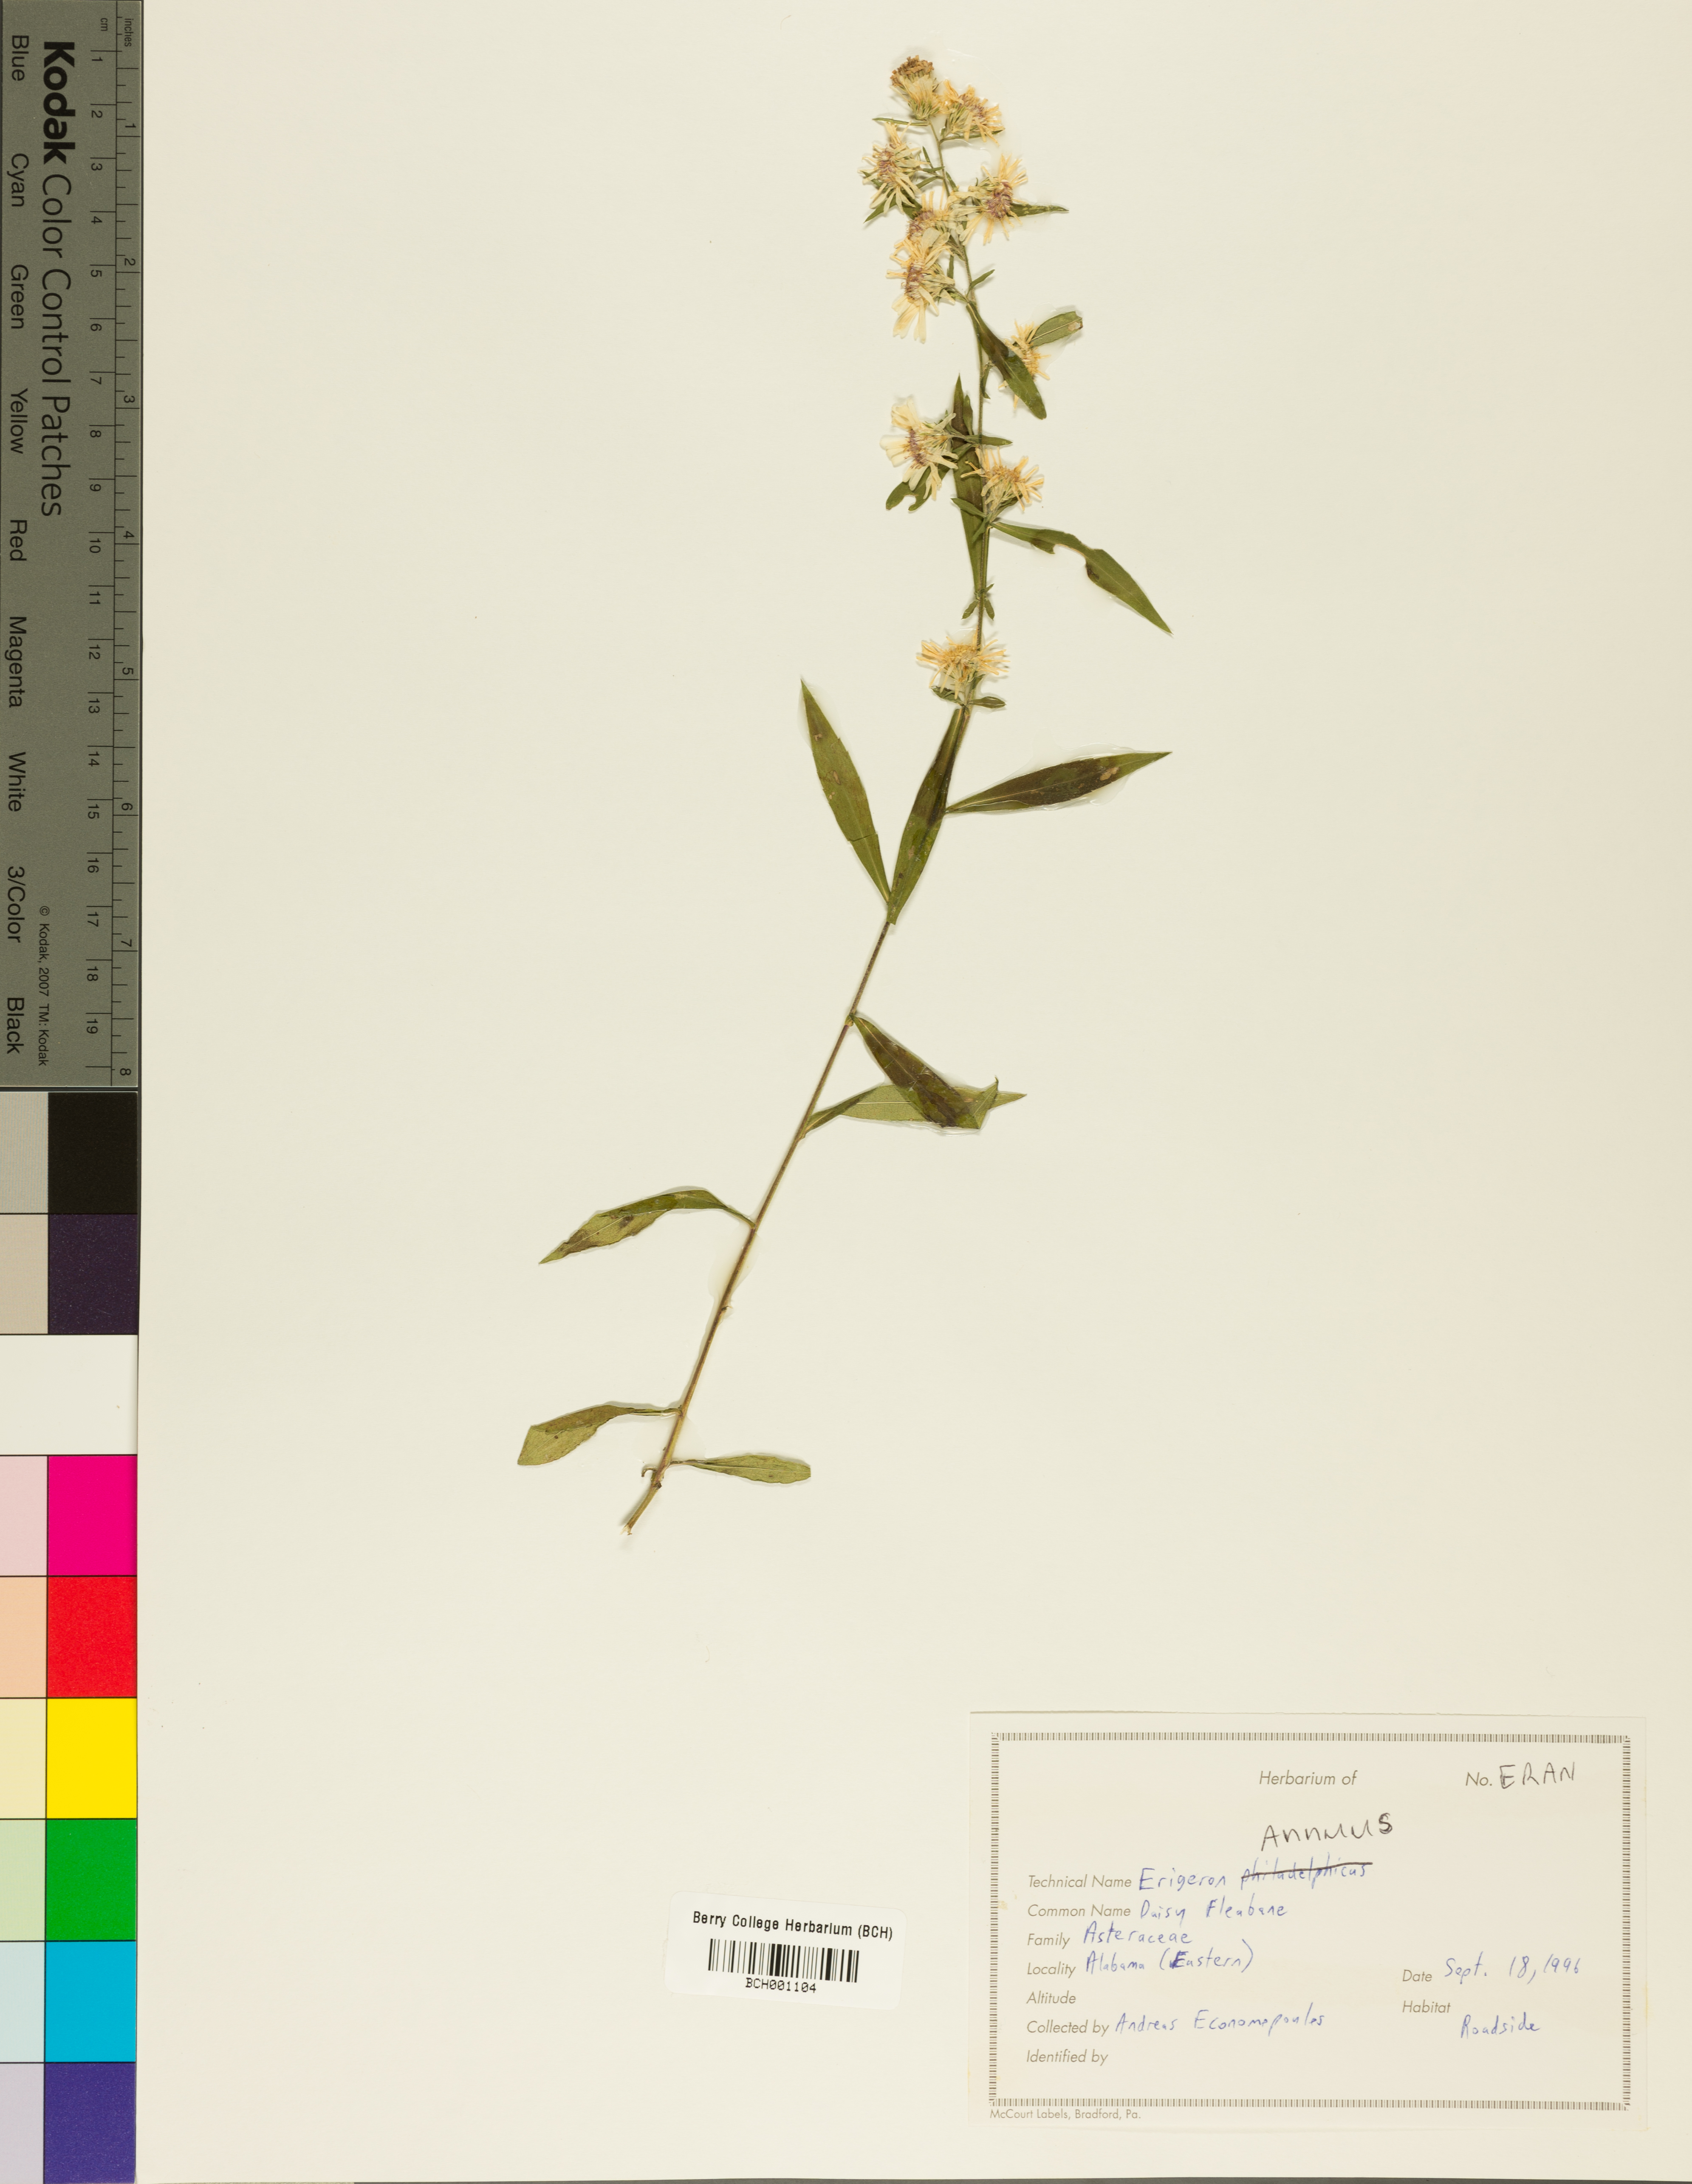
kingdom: Plantae
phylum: Tracheophyta
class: Magnoliopsida
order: Asterales
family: Asteraceae
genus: Erigeron
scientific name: Erigeron annuus
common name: Tall fleabane
